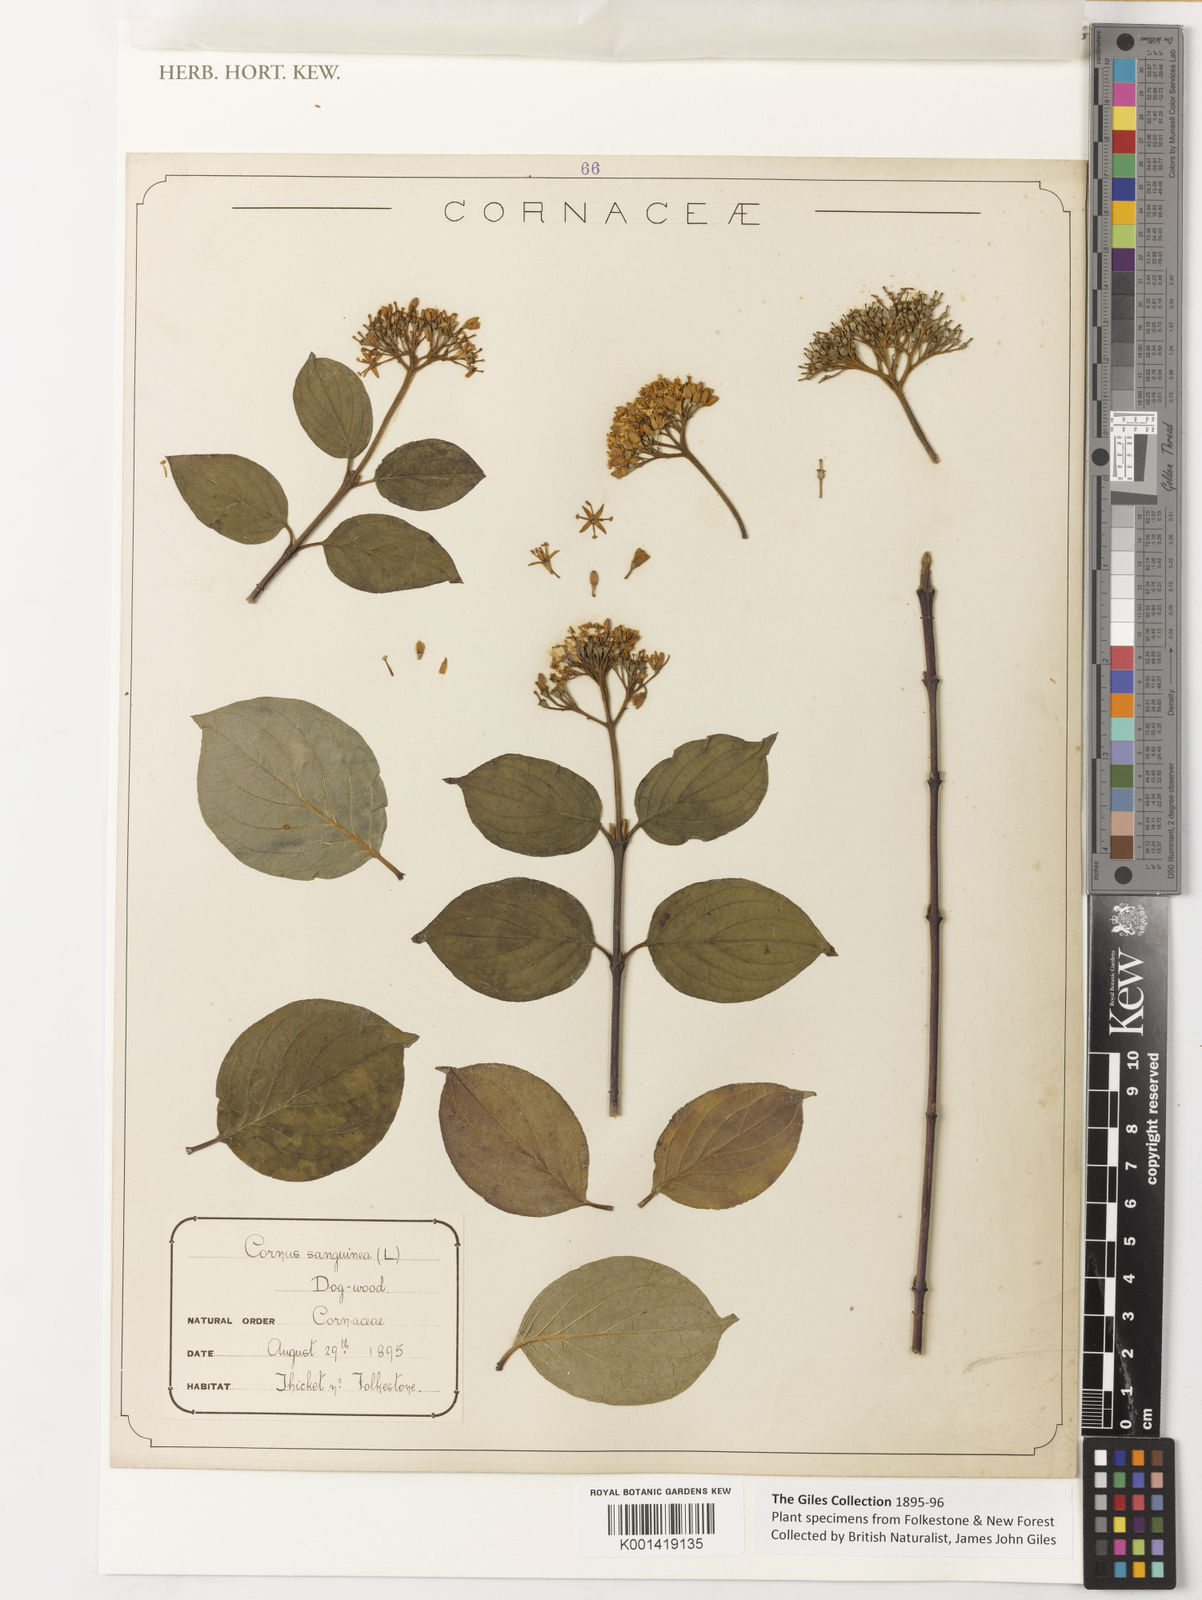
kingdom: Plantae
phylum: Tracheophyta
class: Magnoliopsida
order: Cornales
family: Cornaceae
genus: Cornus
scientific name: Cornus sanguinea
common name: Dogwood
